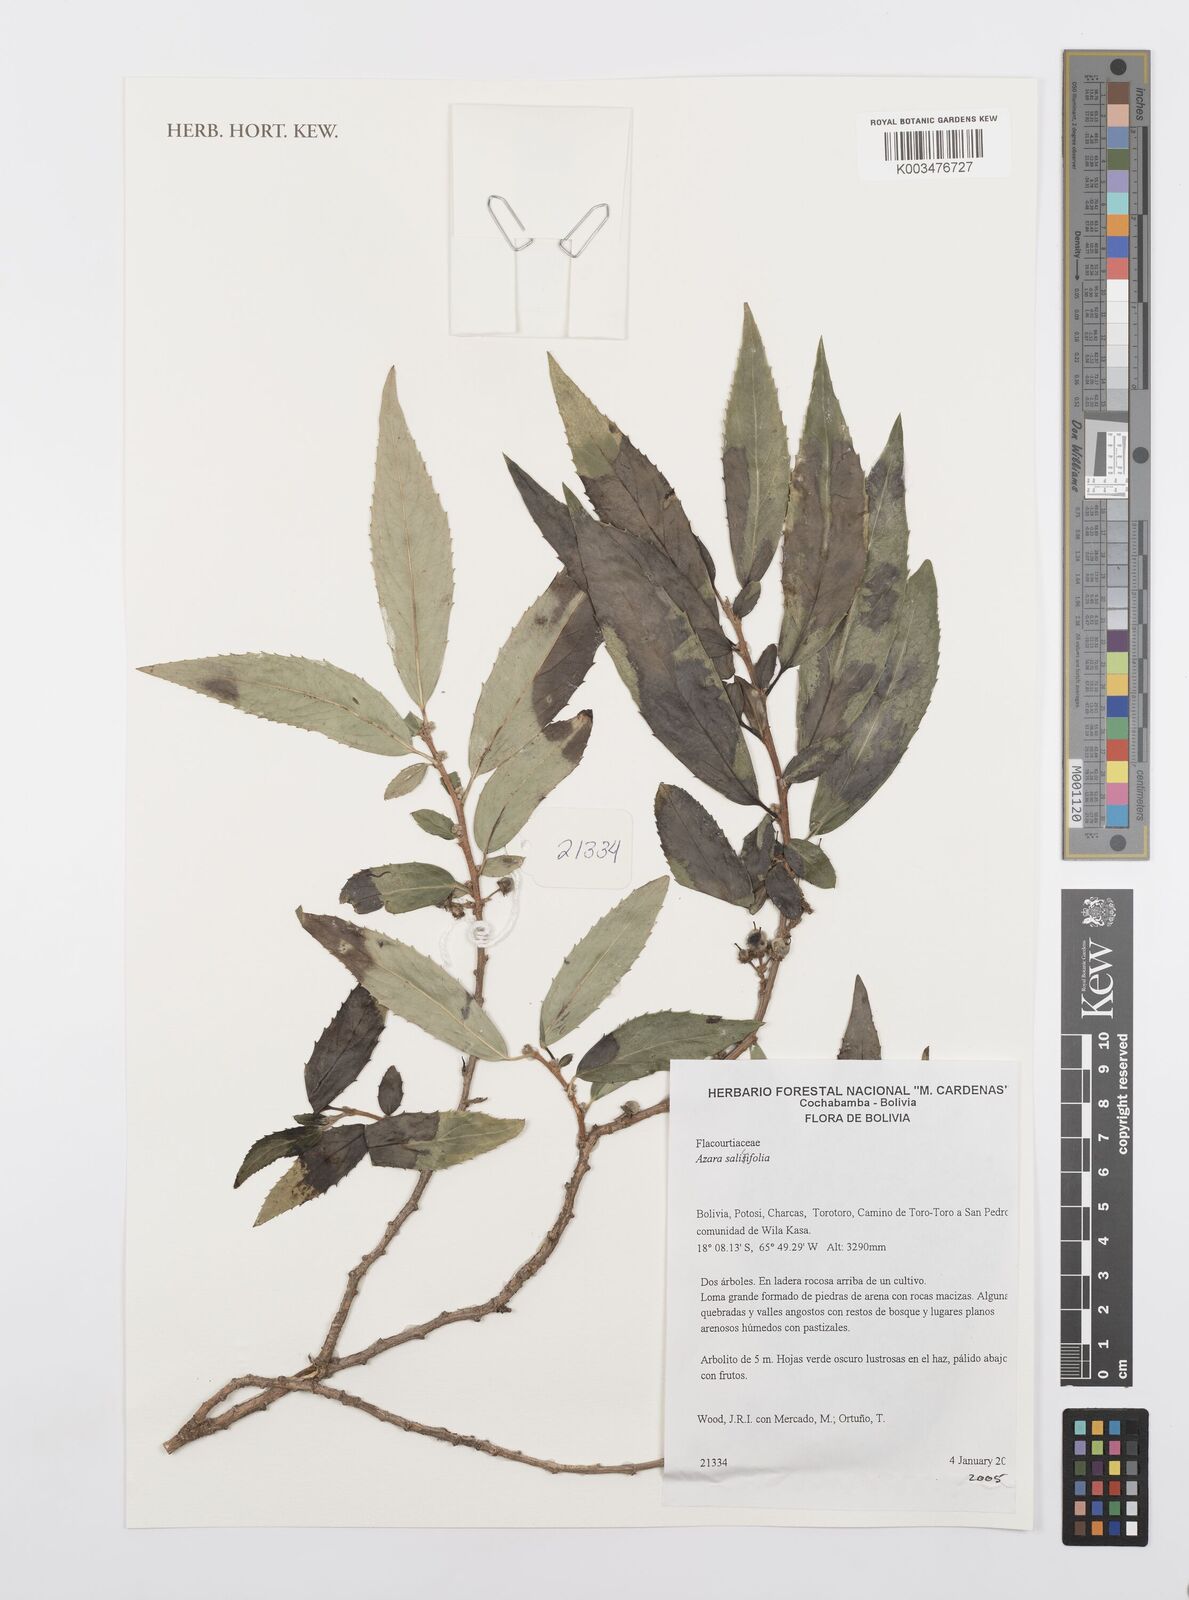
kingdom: Plantae
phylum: Tracheophyta
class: Magnoliopsida
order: Malpighiales
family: Salicaceae
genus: Azara
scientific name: Azara salicifolia
